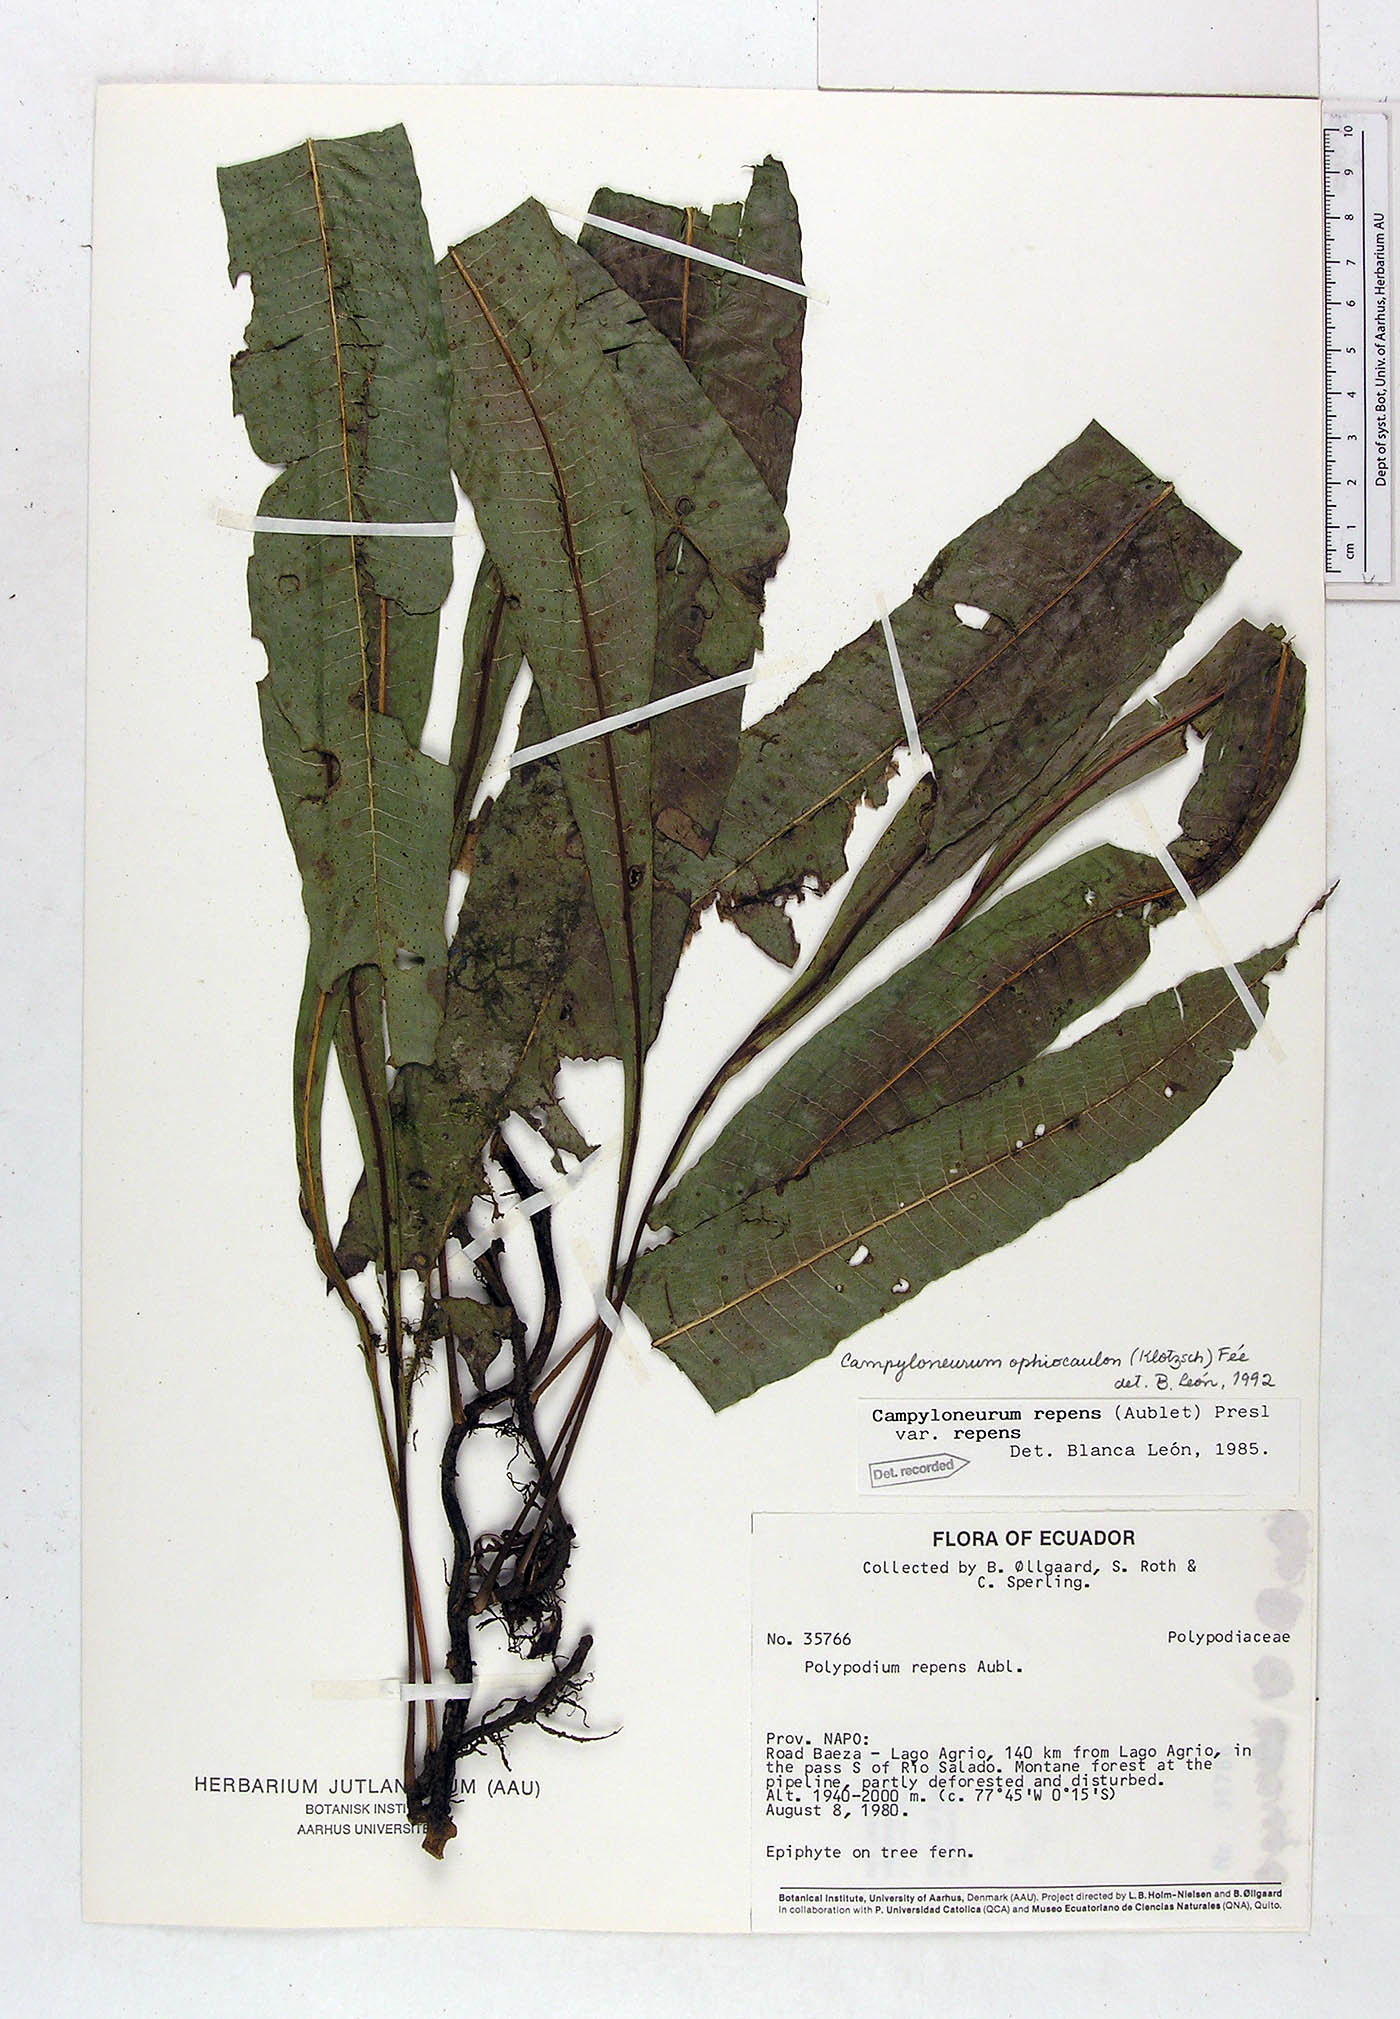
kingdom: Plantae
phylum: Tracheophyta
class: Polypodiopsida
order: Polypodiales
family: Polypodiaceae
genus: Campyloneurum
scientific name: Campyloneurum ophiocaulon
